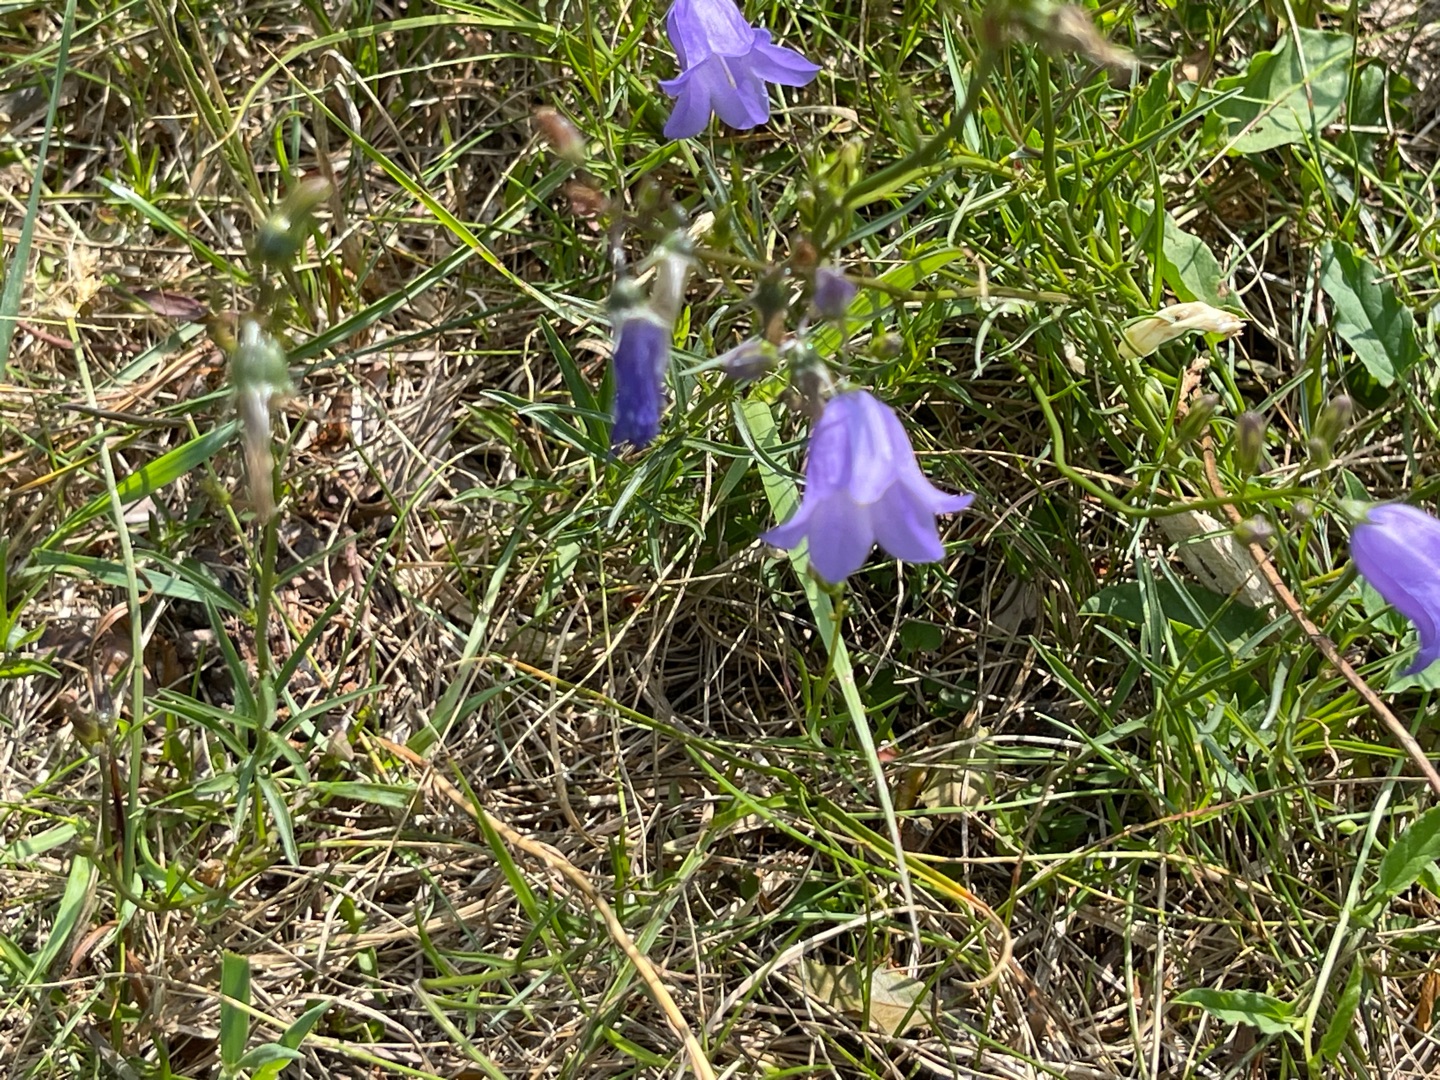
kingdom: Plantae
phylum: Tracheophyta
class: Magnoliopsida
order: Asterales
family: Campanulaceae
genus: Campanula
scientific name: Campanula rotundifolia
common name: Liden klokke
